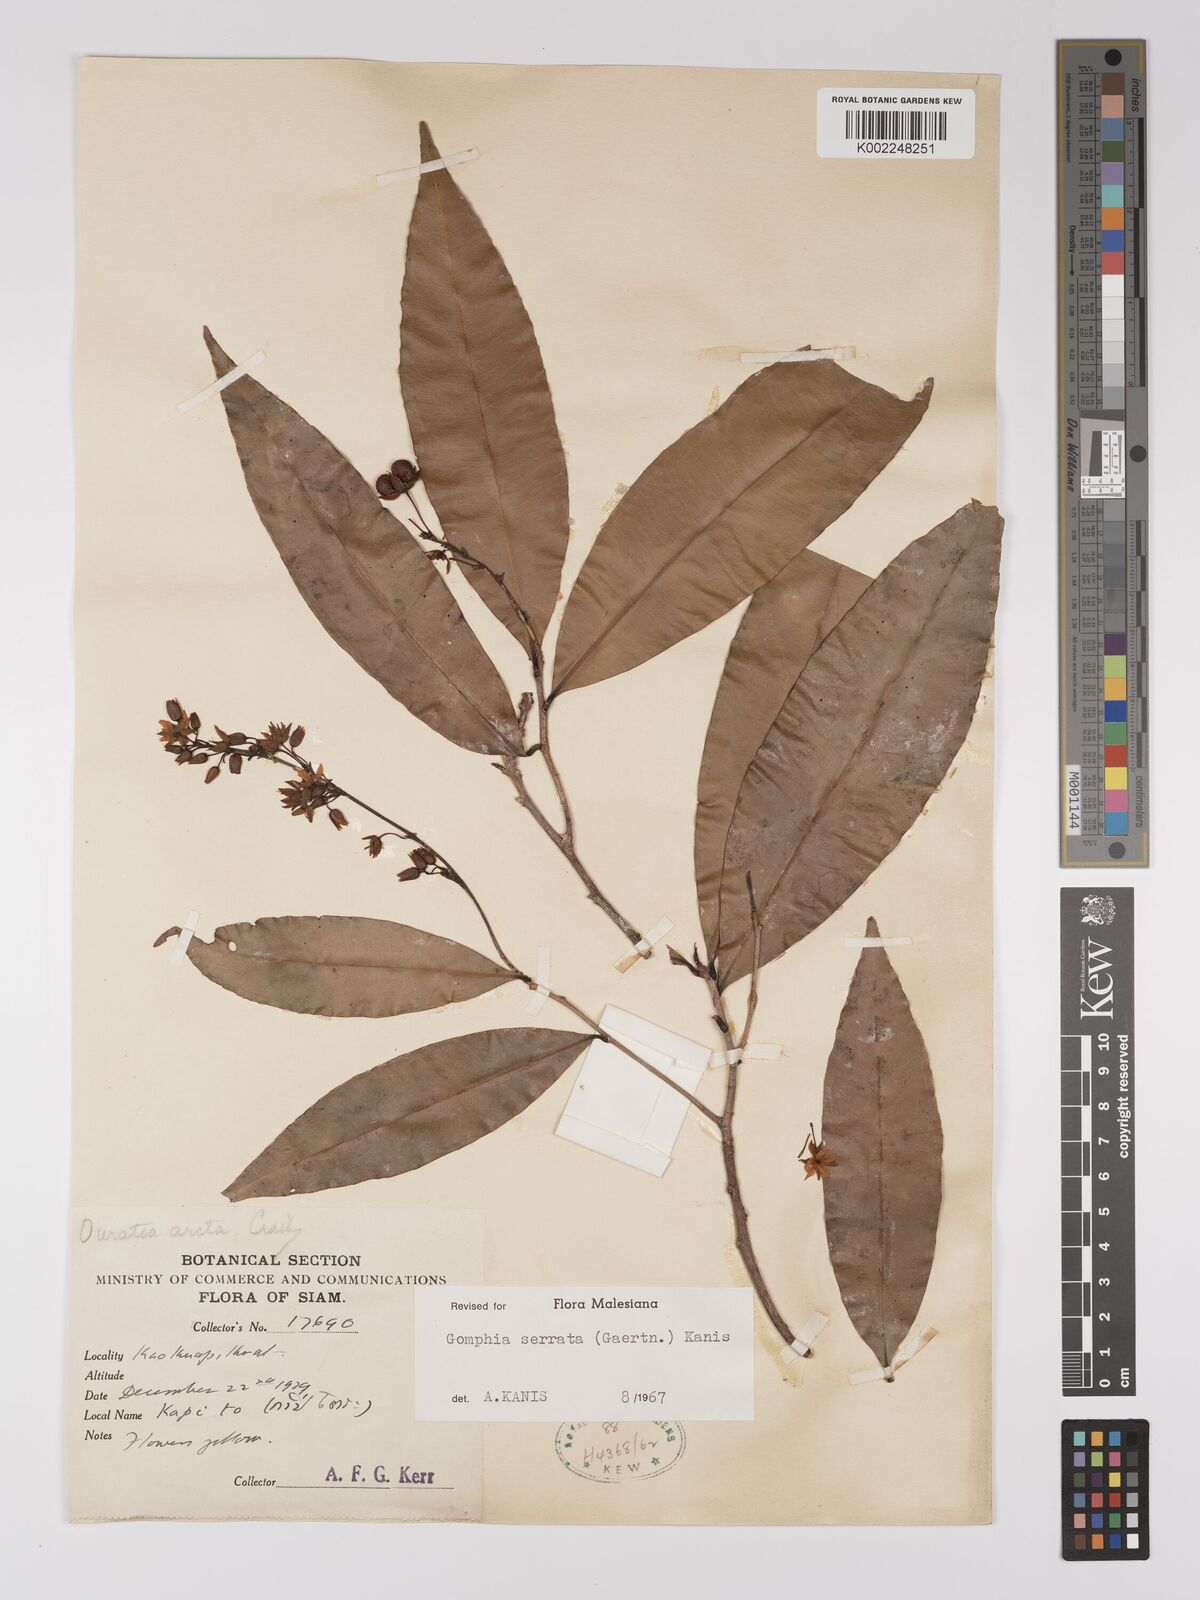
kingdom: Plantae
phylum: Tracheophyta
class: Magnoliopsida
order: Malpighiales
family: Ochnaceae
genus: Gomphia
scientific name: Gomphia serrata
